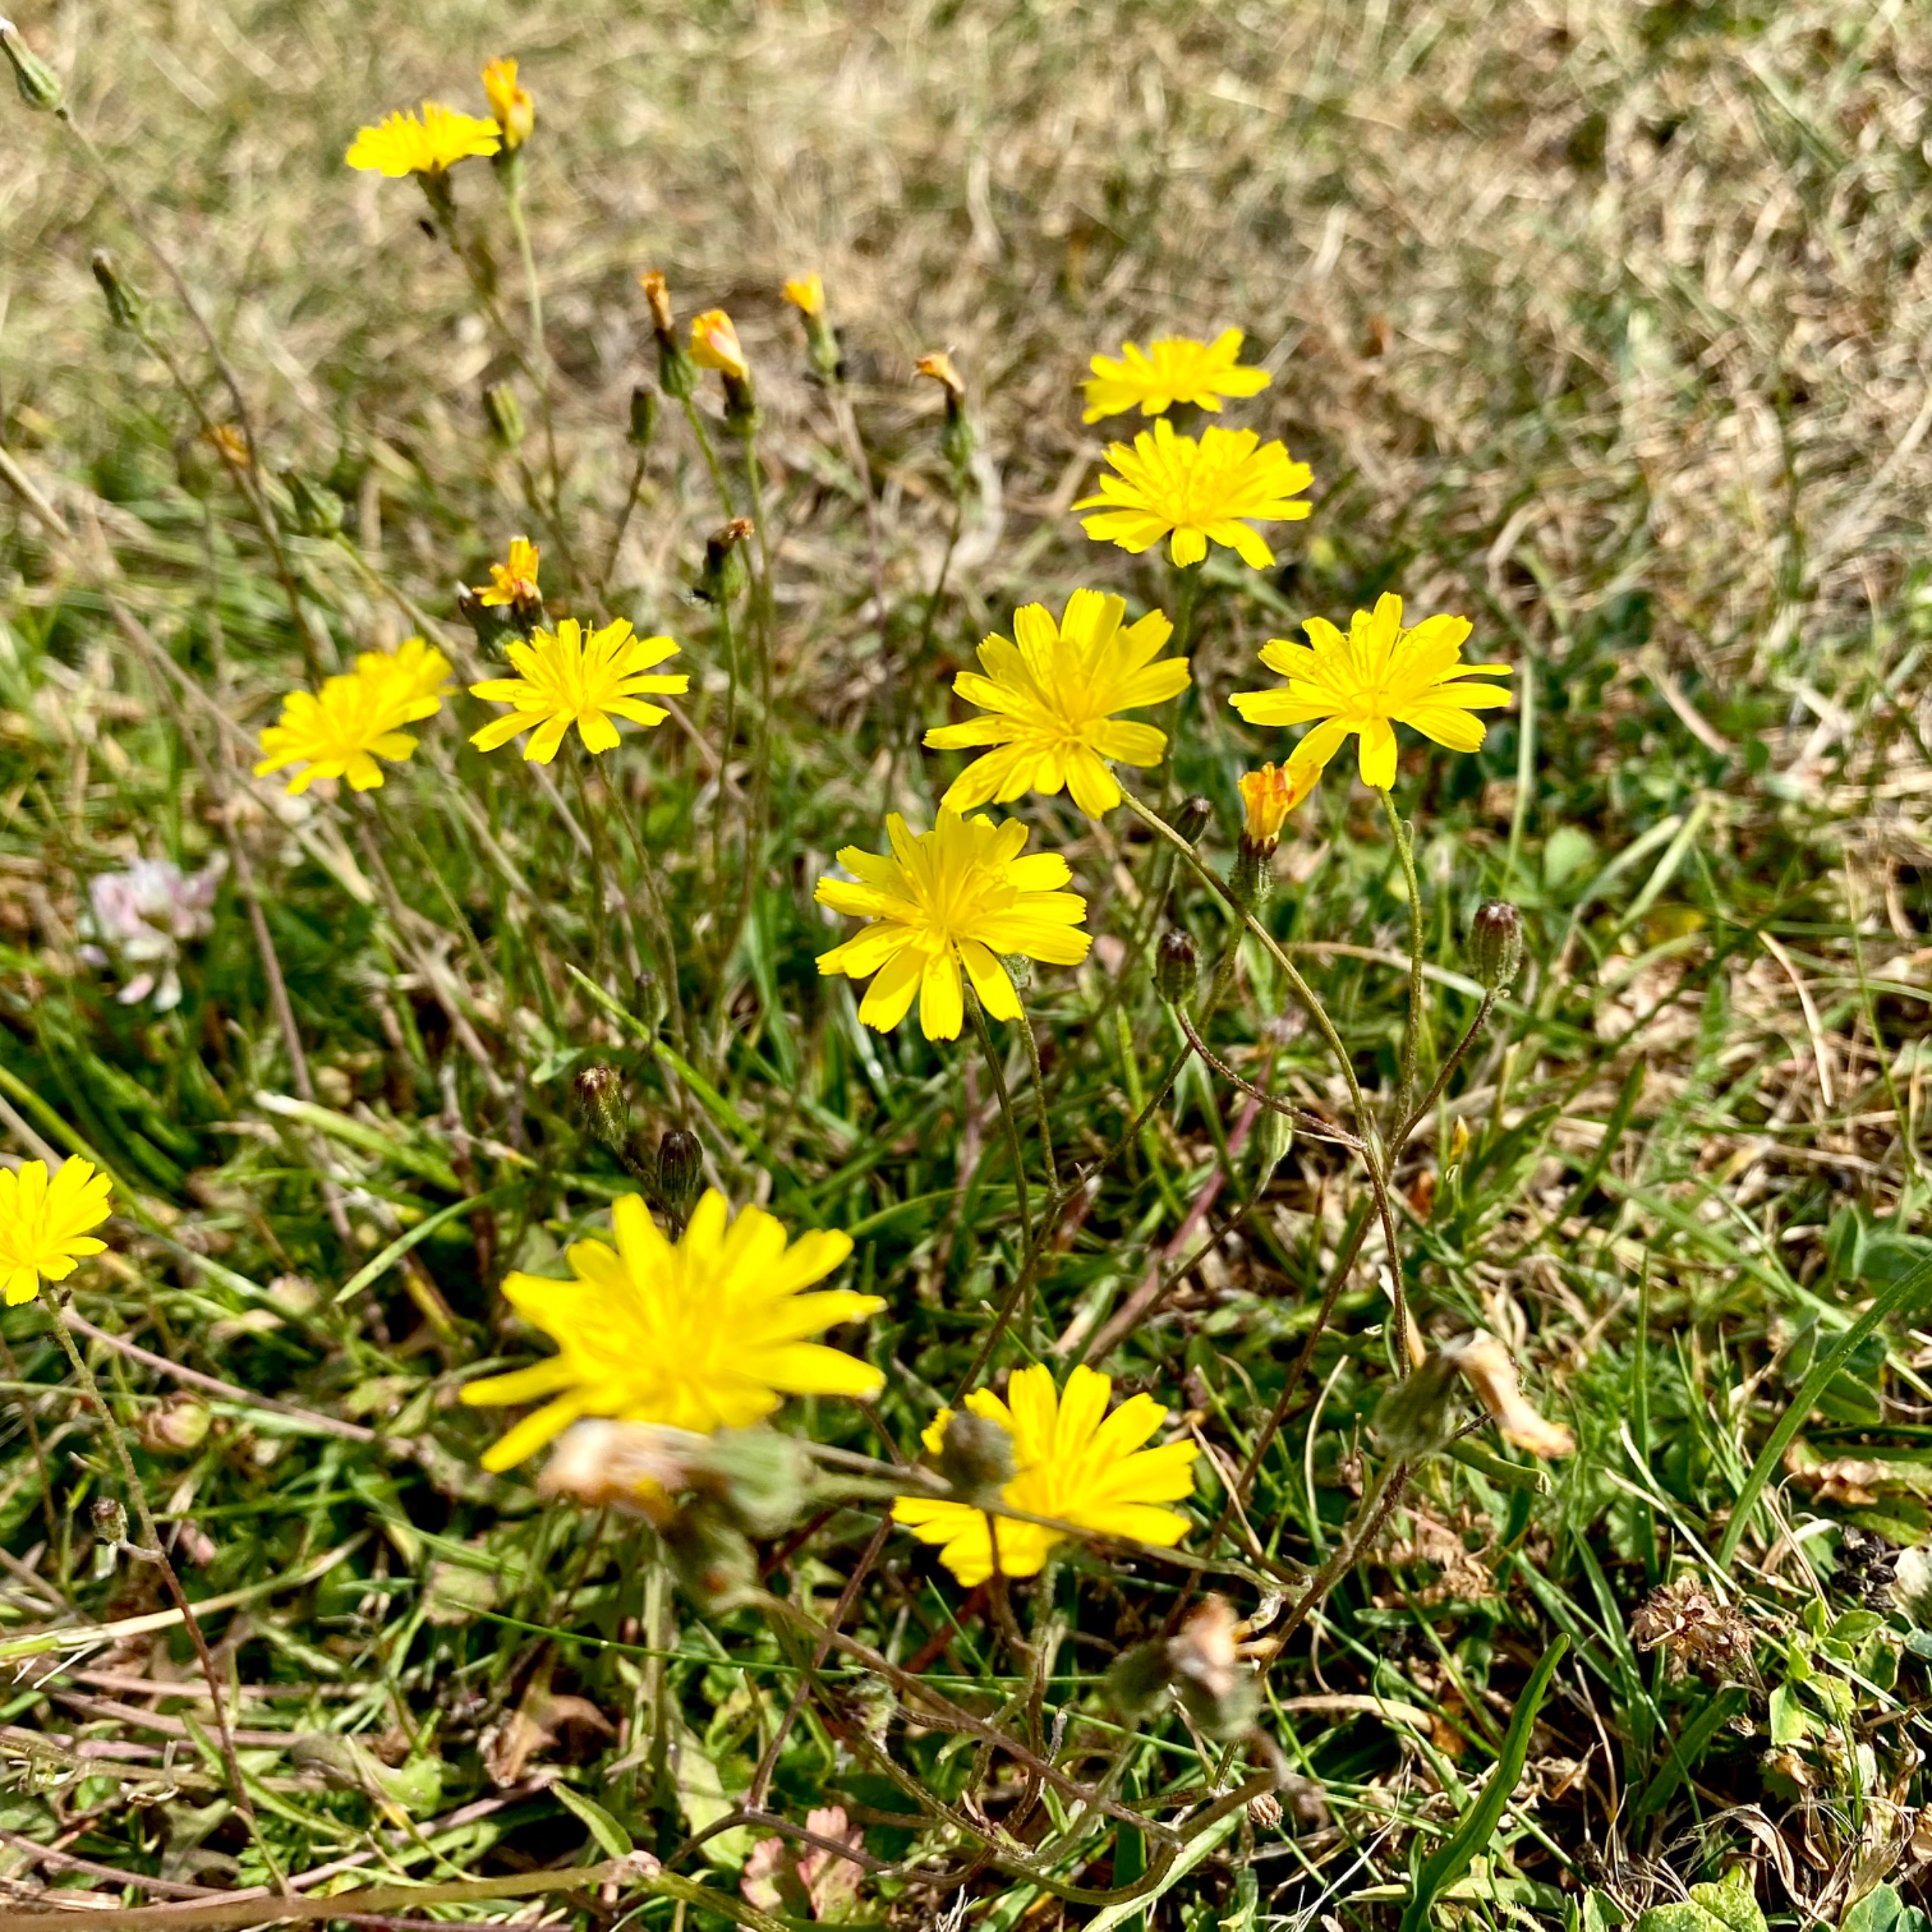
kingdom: Plantae
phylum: Tracheophyta
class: Magnoliopsida
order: Asterales
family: Asteraceae
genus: Crepis
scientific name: Crepis capillaris
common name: Grøn høgeskæg
